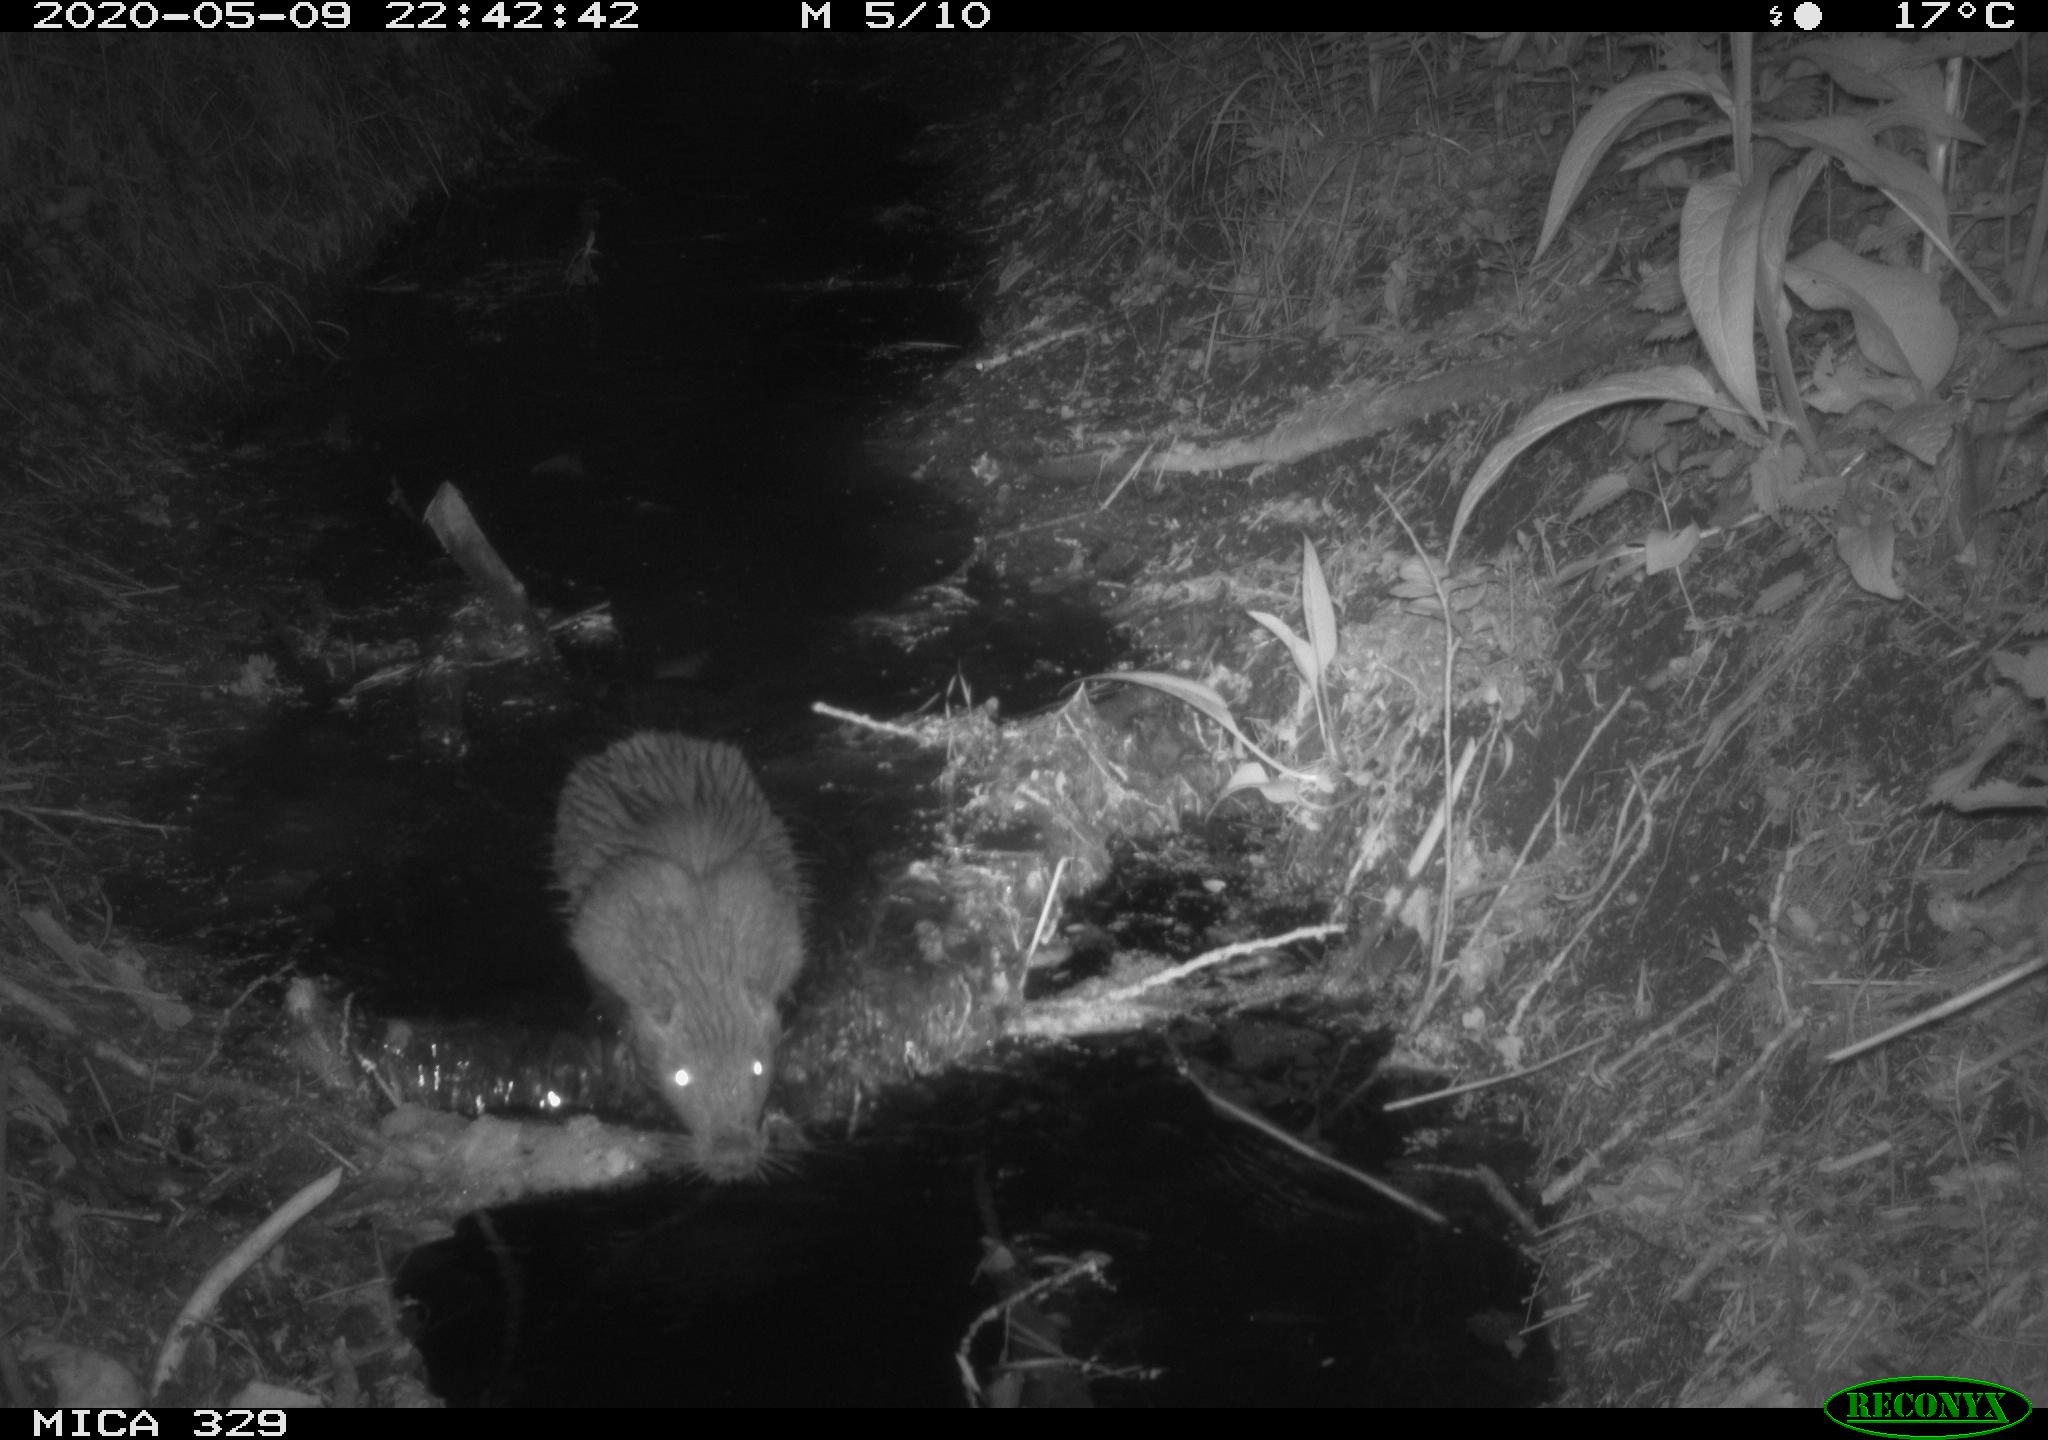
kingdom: Animalia
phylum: Chordata
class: Mammalia
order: Rodentia
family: Myocastoridae
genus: Myocastor
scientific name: Myocastor coypus
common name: Coypu
